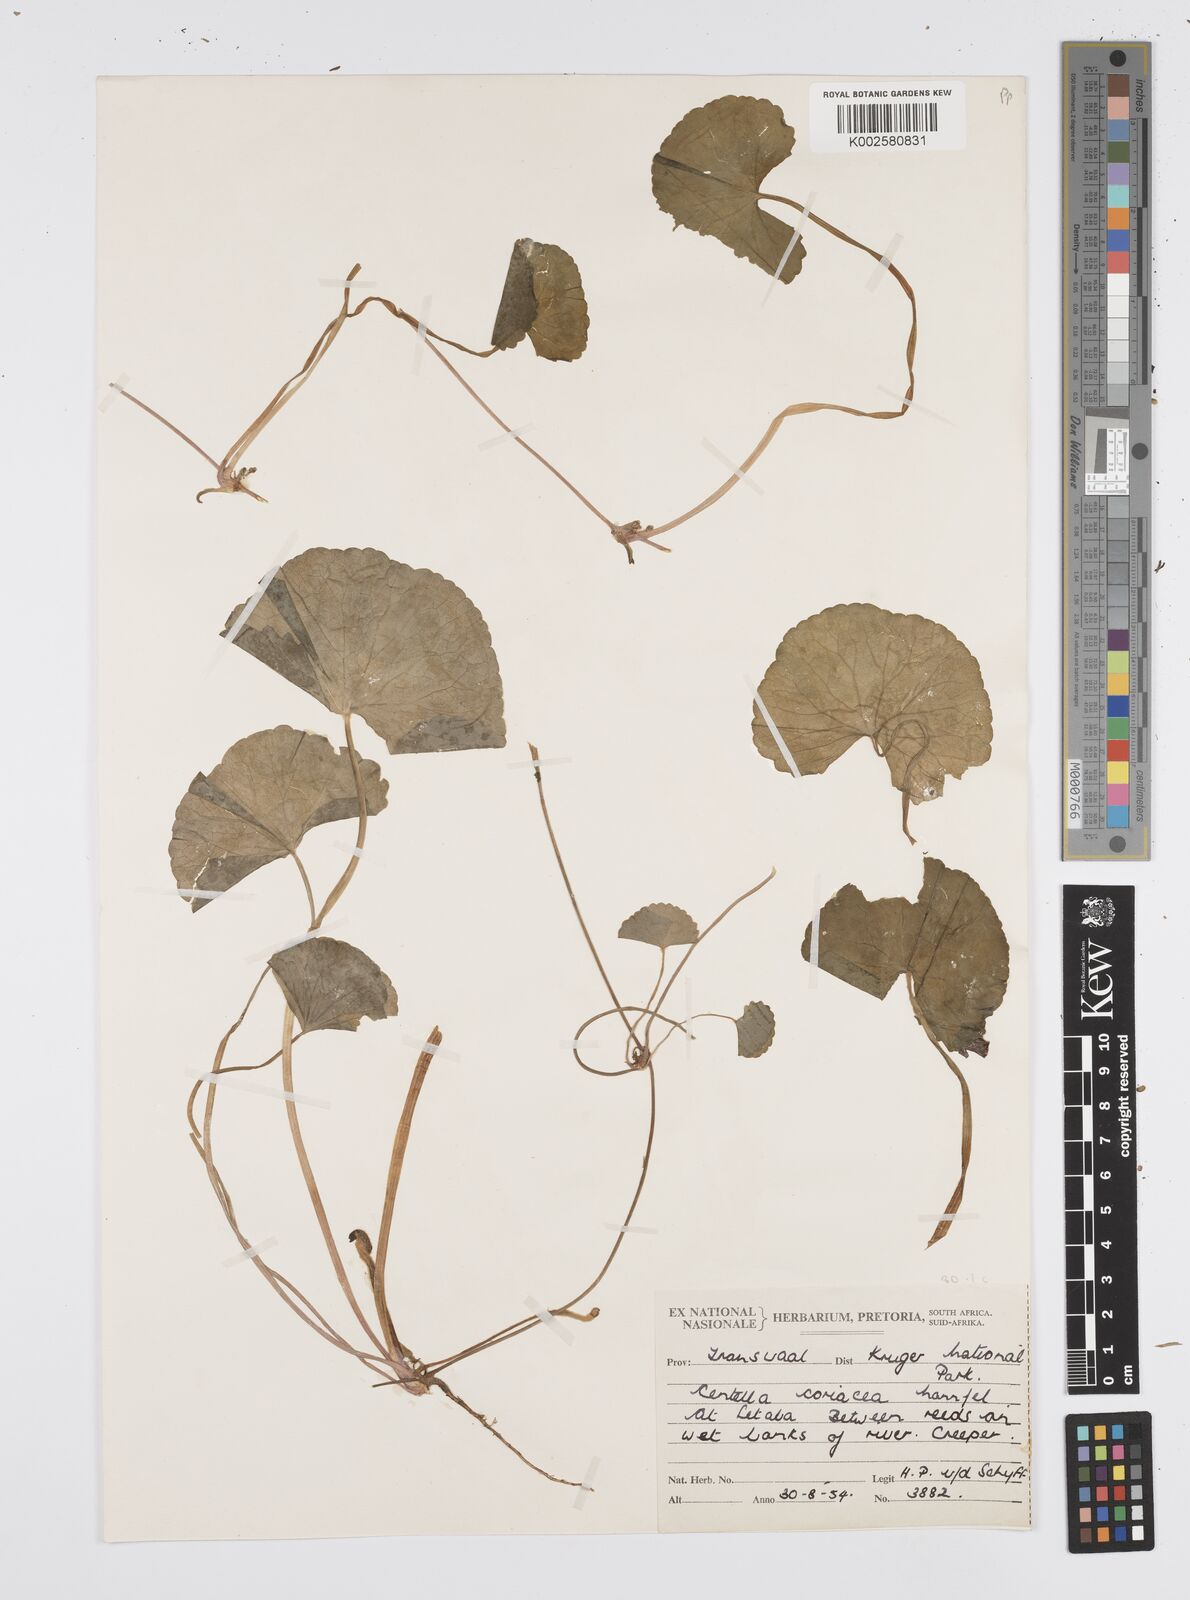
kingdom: Plantae
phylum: Tracheophyta
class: Magnoliopsida
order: Apiales
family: Apiaceae
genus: Centella
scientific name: Centella coriacea
